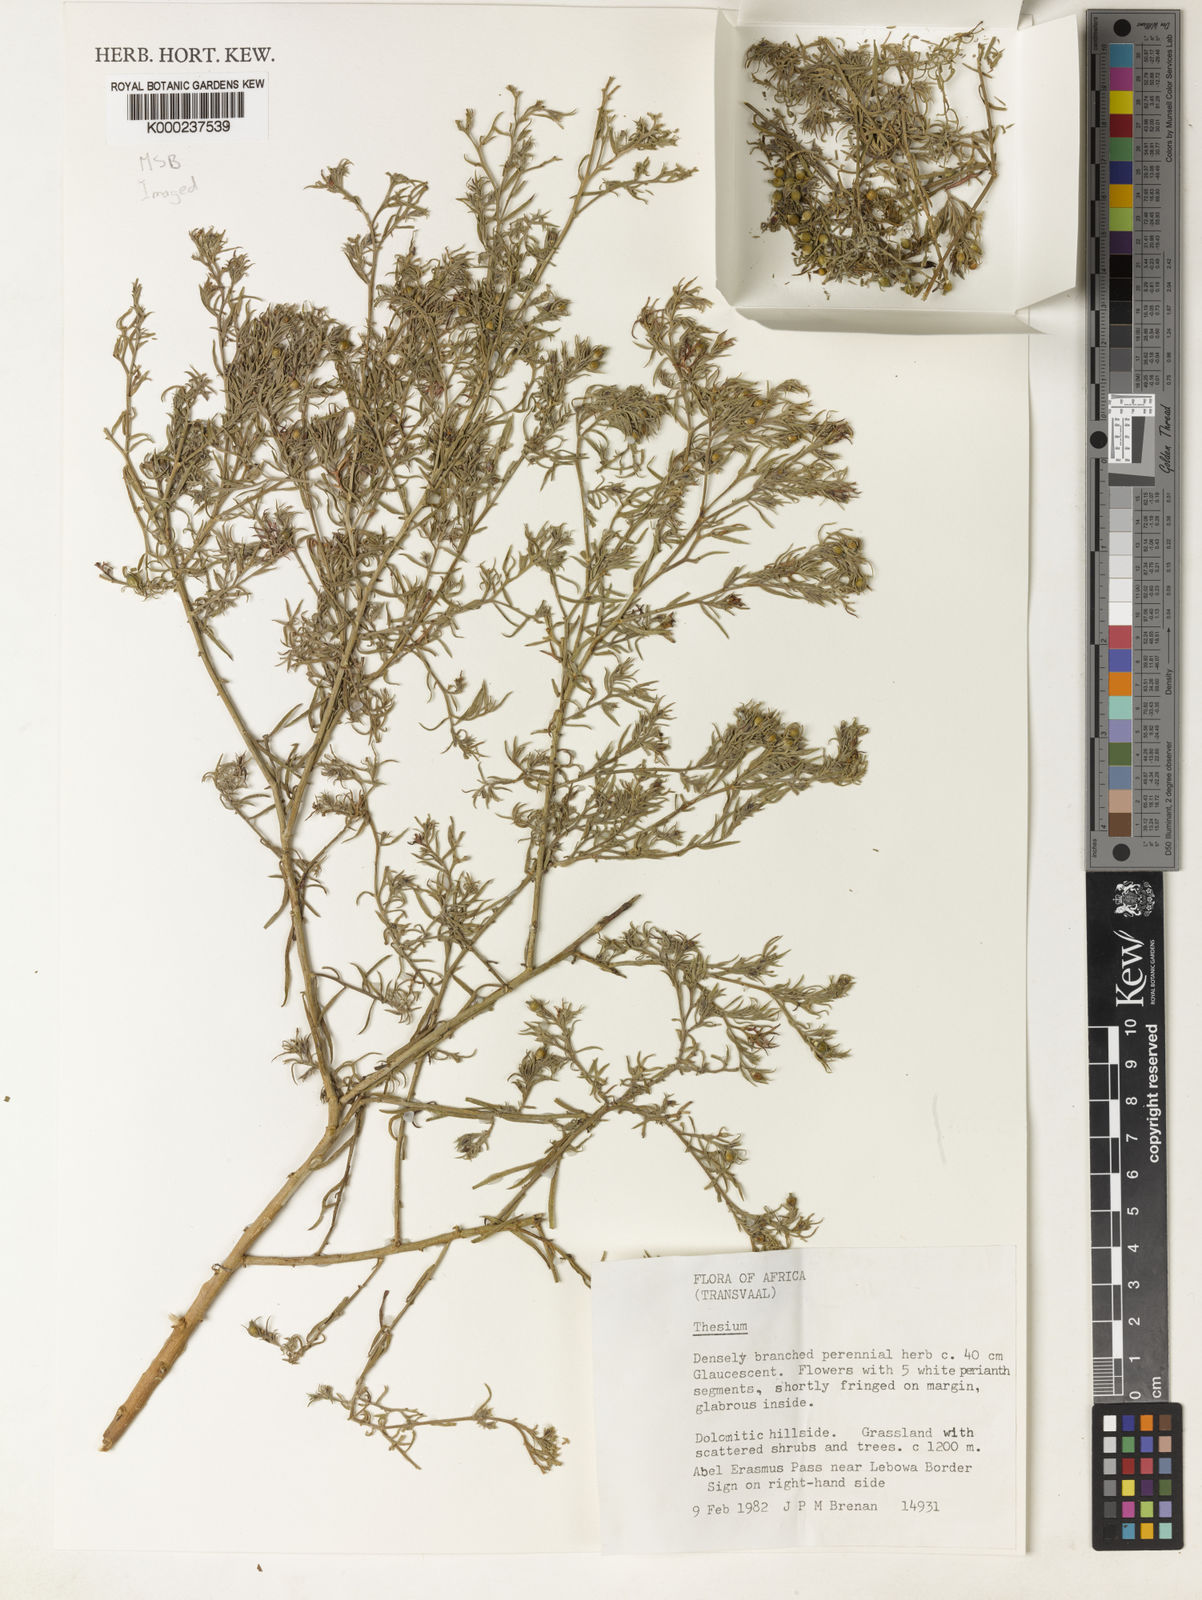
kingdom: Plantae
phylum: Tracheophyta
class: Magnoliopsida
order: Santalales
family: Thesiaceae
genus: Thesium
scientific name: Thesium davidsoniae
